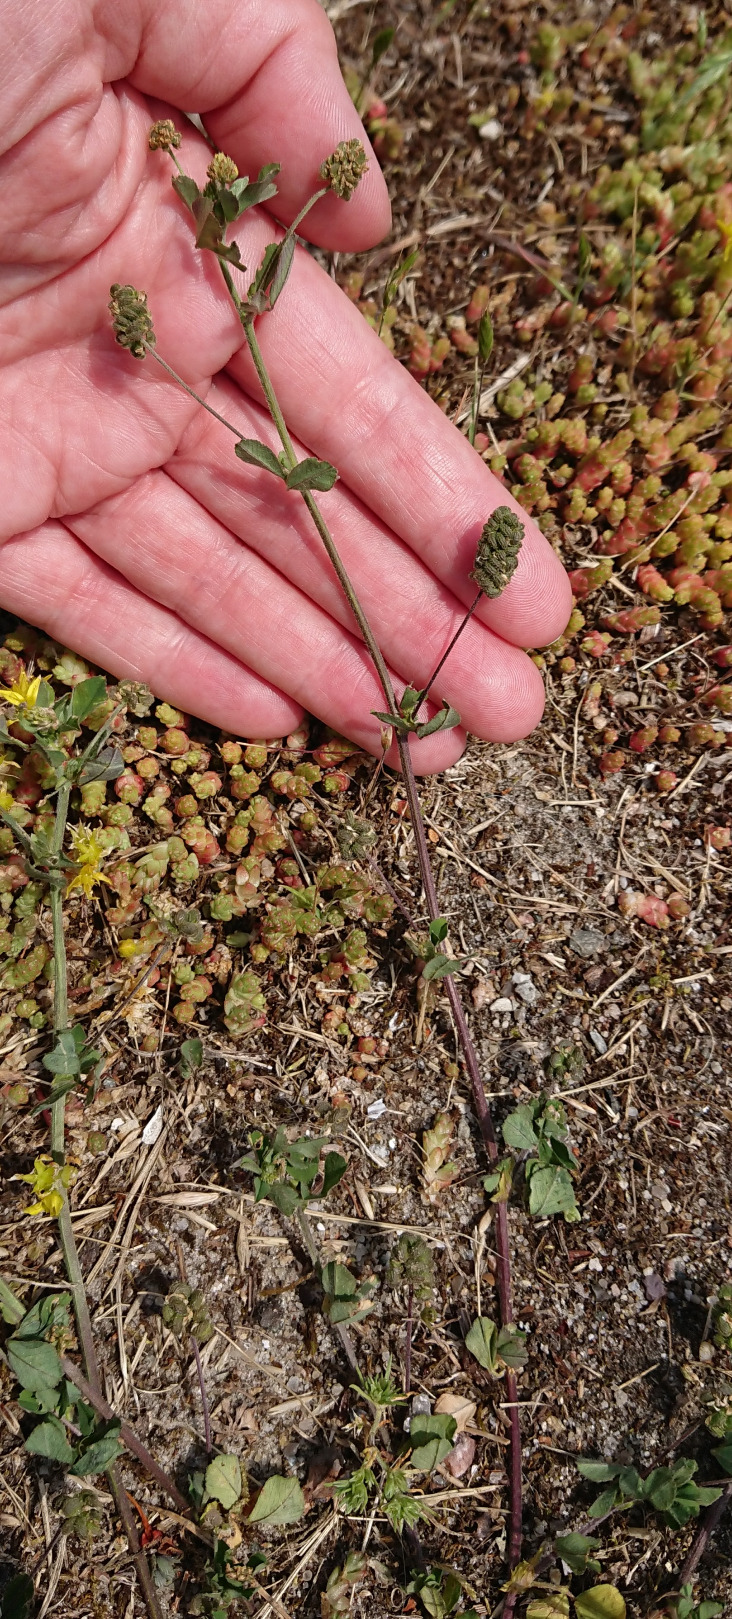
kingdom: Plantae
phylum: Tracheophyta
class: Magnoliopsida
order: Fabales
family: Fabaceae
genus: Medicago
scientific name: Medicago lupulina
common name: Humle-sneglebælg
